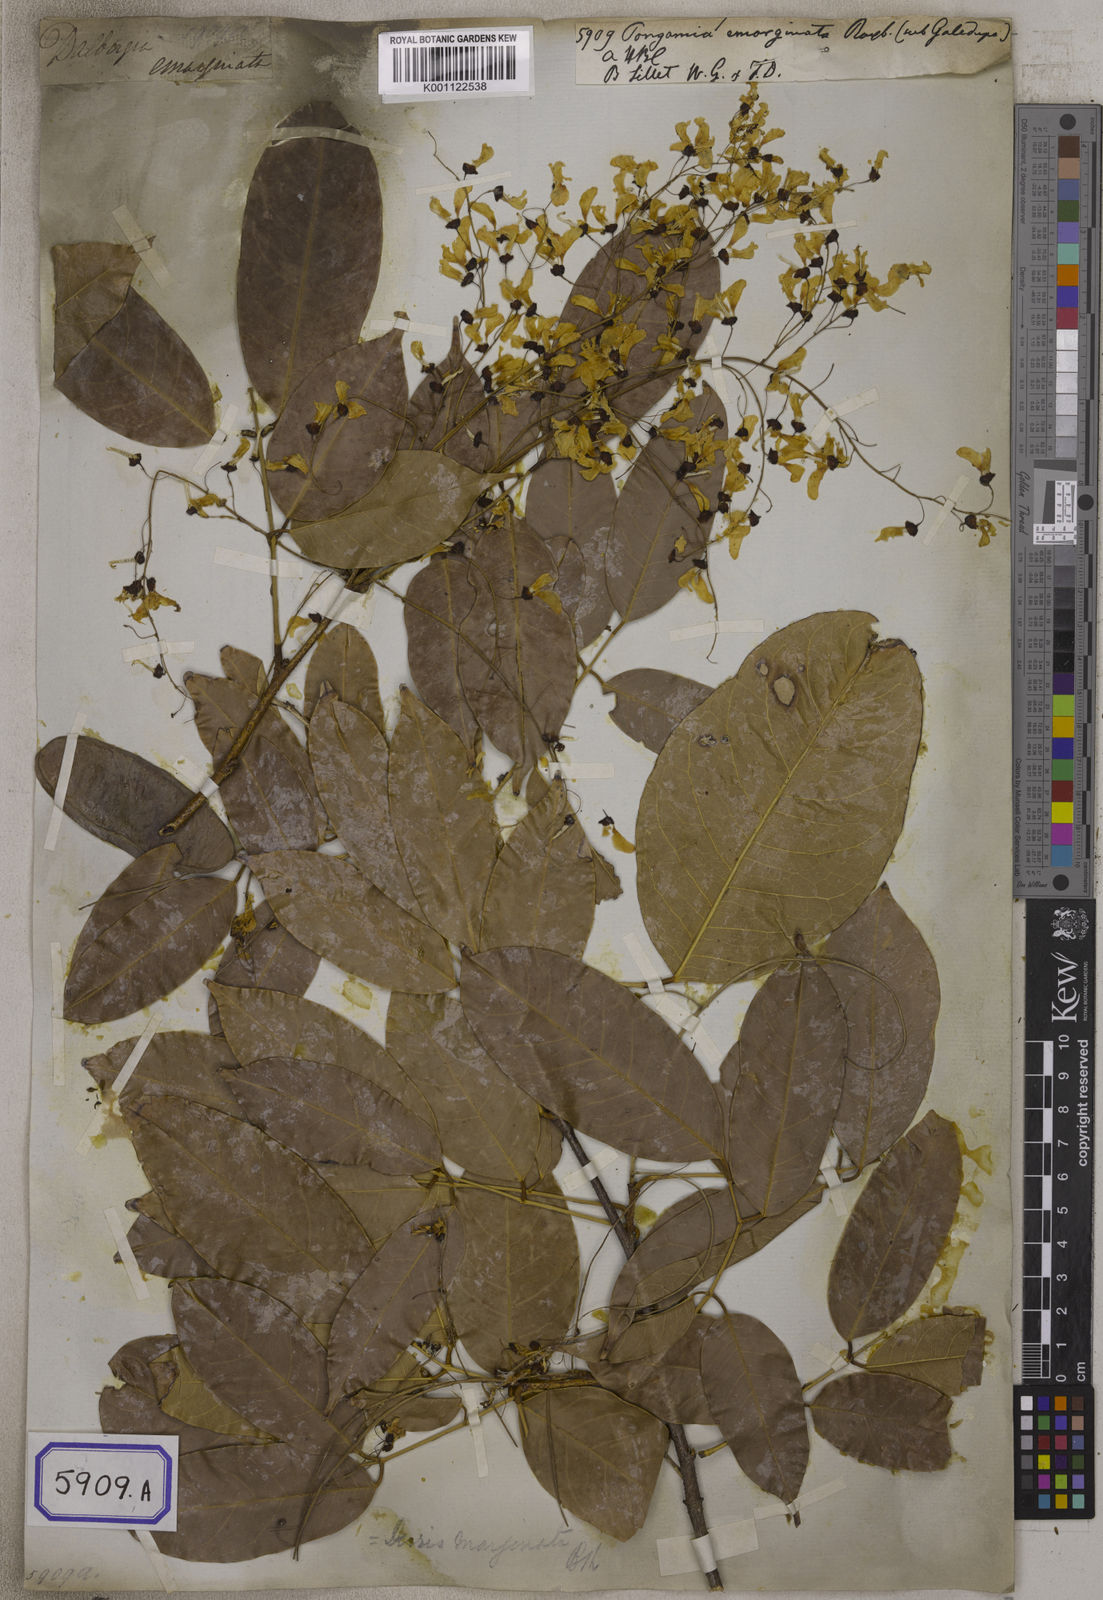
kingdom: Plantae
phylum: Tracheophyta
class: Magnoliopsida
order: Fabales
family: Fabaceae
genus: Pongamia
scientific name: Pongamia
